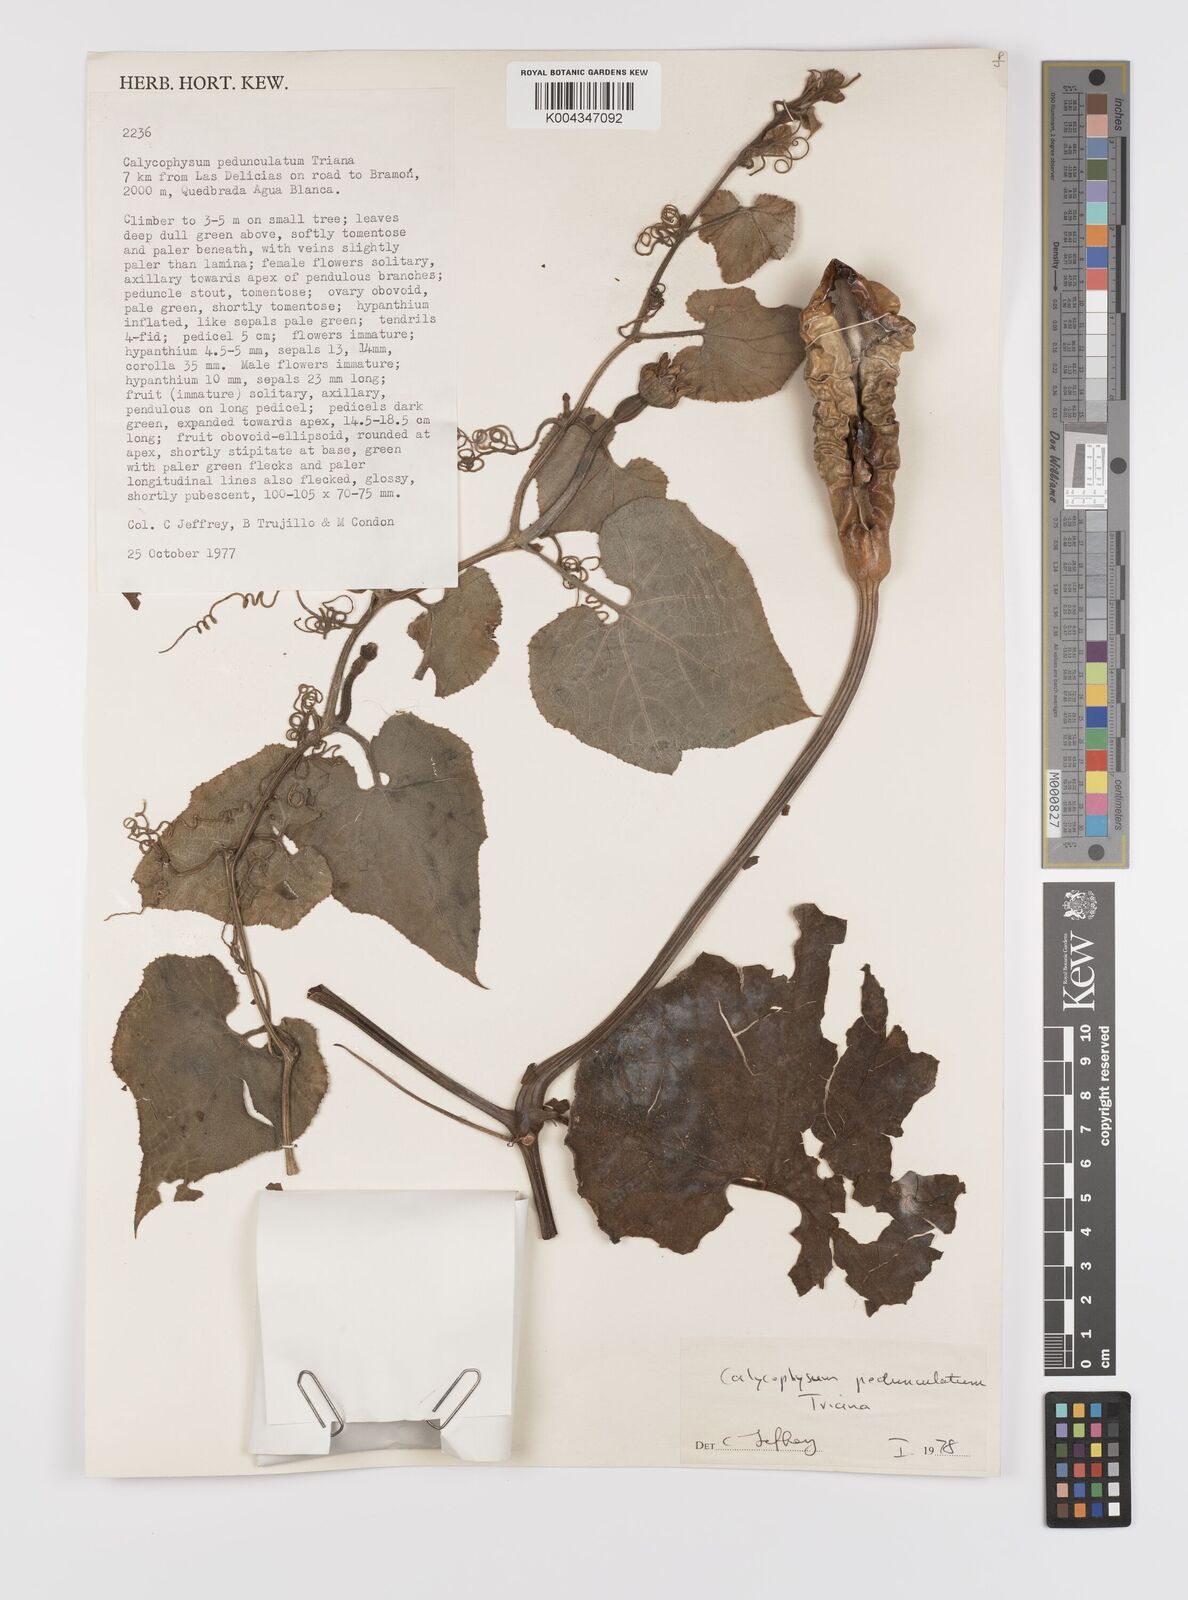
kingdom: Plantae
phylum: Tracheophyta
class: Magnoliopsida
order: Cucurbitales
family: Cucurbitaceae
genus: Calycophysum
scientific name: Calycophysum pedunculatum
